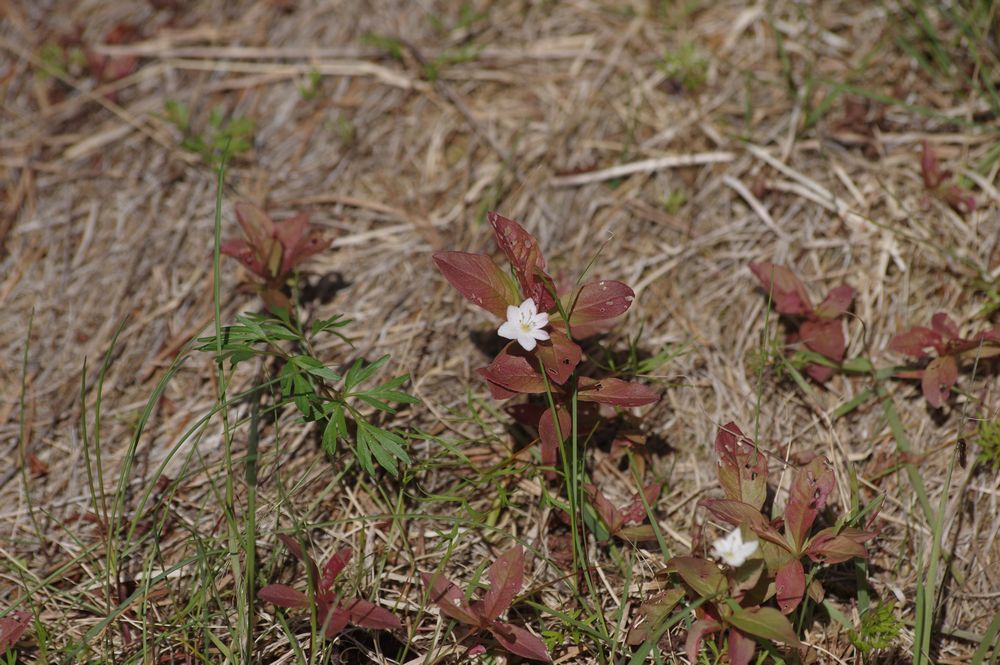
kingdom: Plantae
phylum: Tracheophyta
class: Magnoliopsida
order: Ericales
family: Primulaceae
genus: Lysimachia
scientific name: Lysimachia europaea
